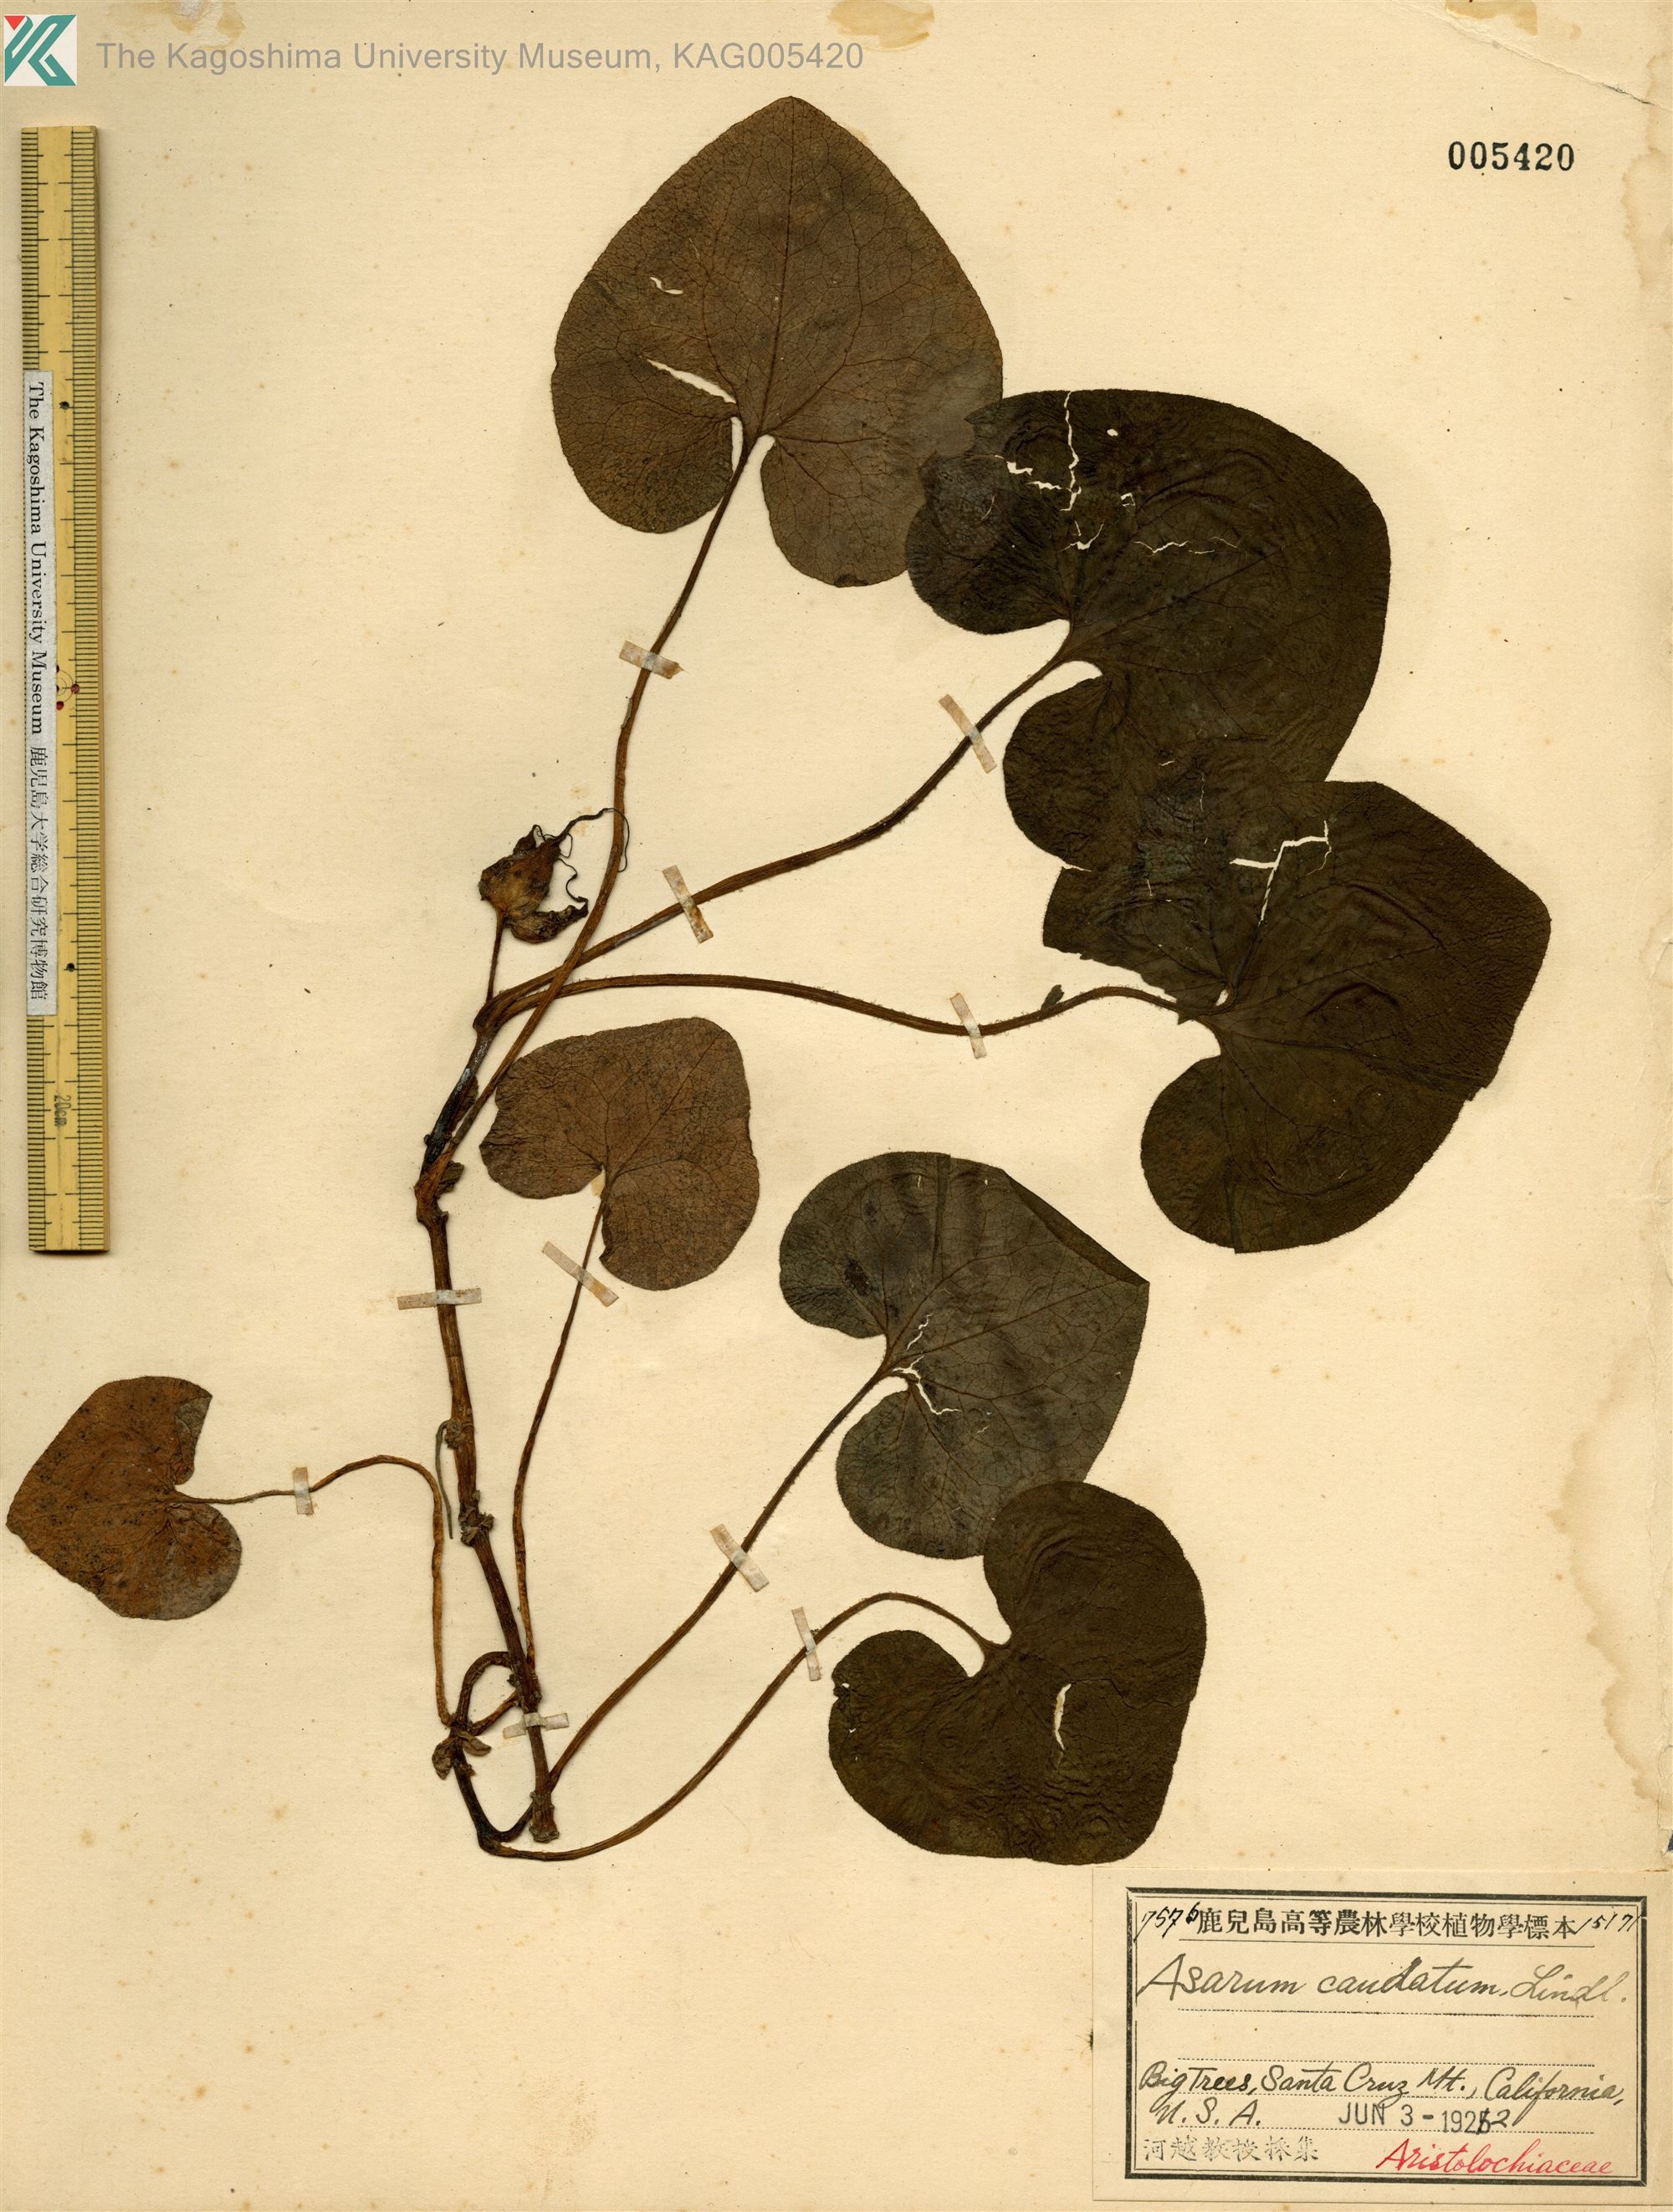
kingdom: Plantae
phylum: Tracheophyta
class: Magnoliopsida
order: Piperales
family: Aristolochiaceae
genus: Asarum
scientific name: Asarum caudatum
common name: Wild ginger
